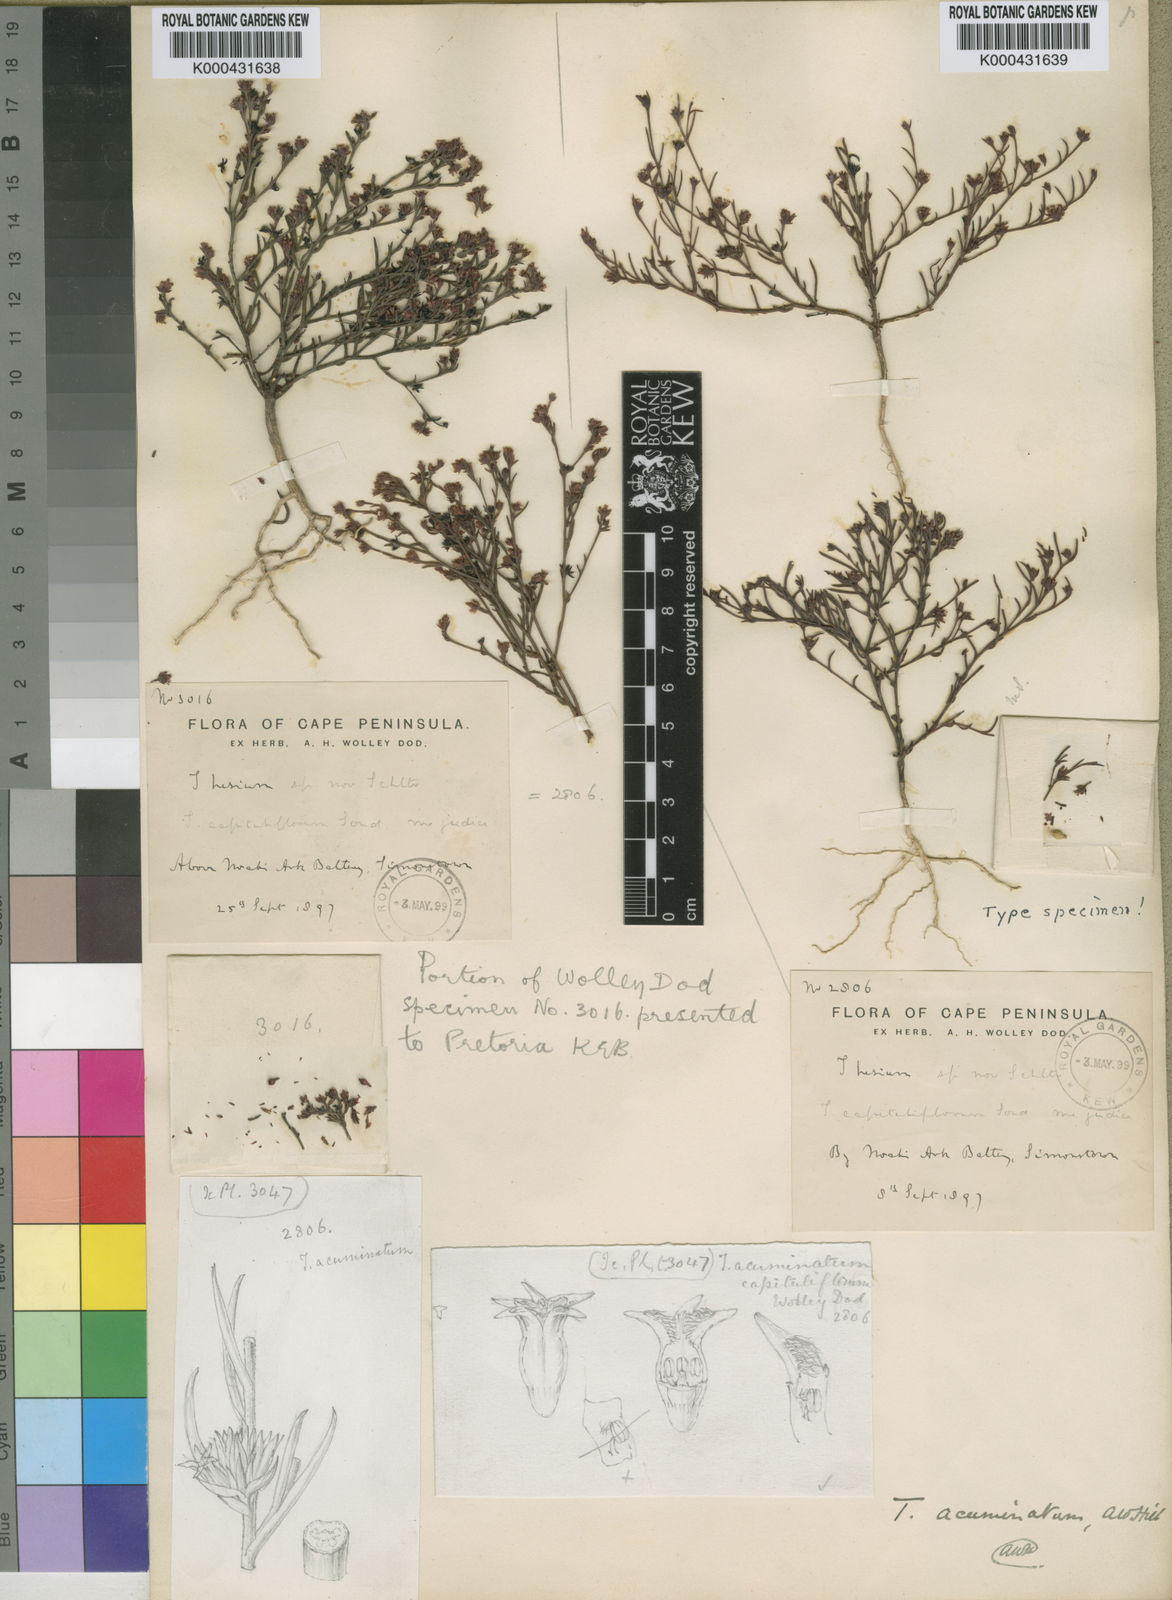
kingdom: Plantae
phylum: Tracheophyta
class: Magnoliopsida
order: Santalales
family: Thesiaceae
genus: Thesium
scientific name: Thesium acuminatum
